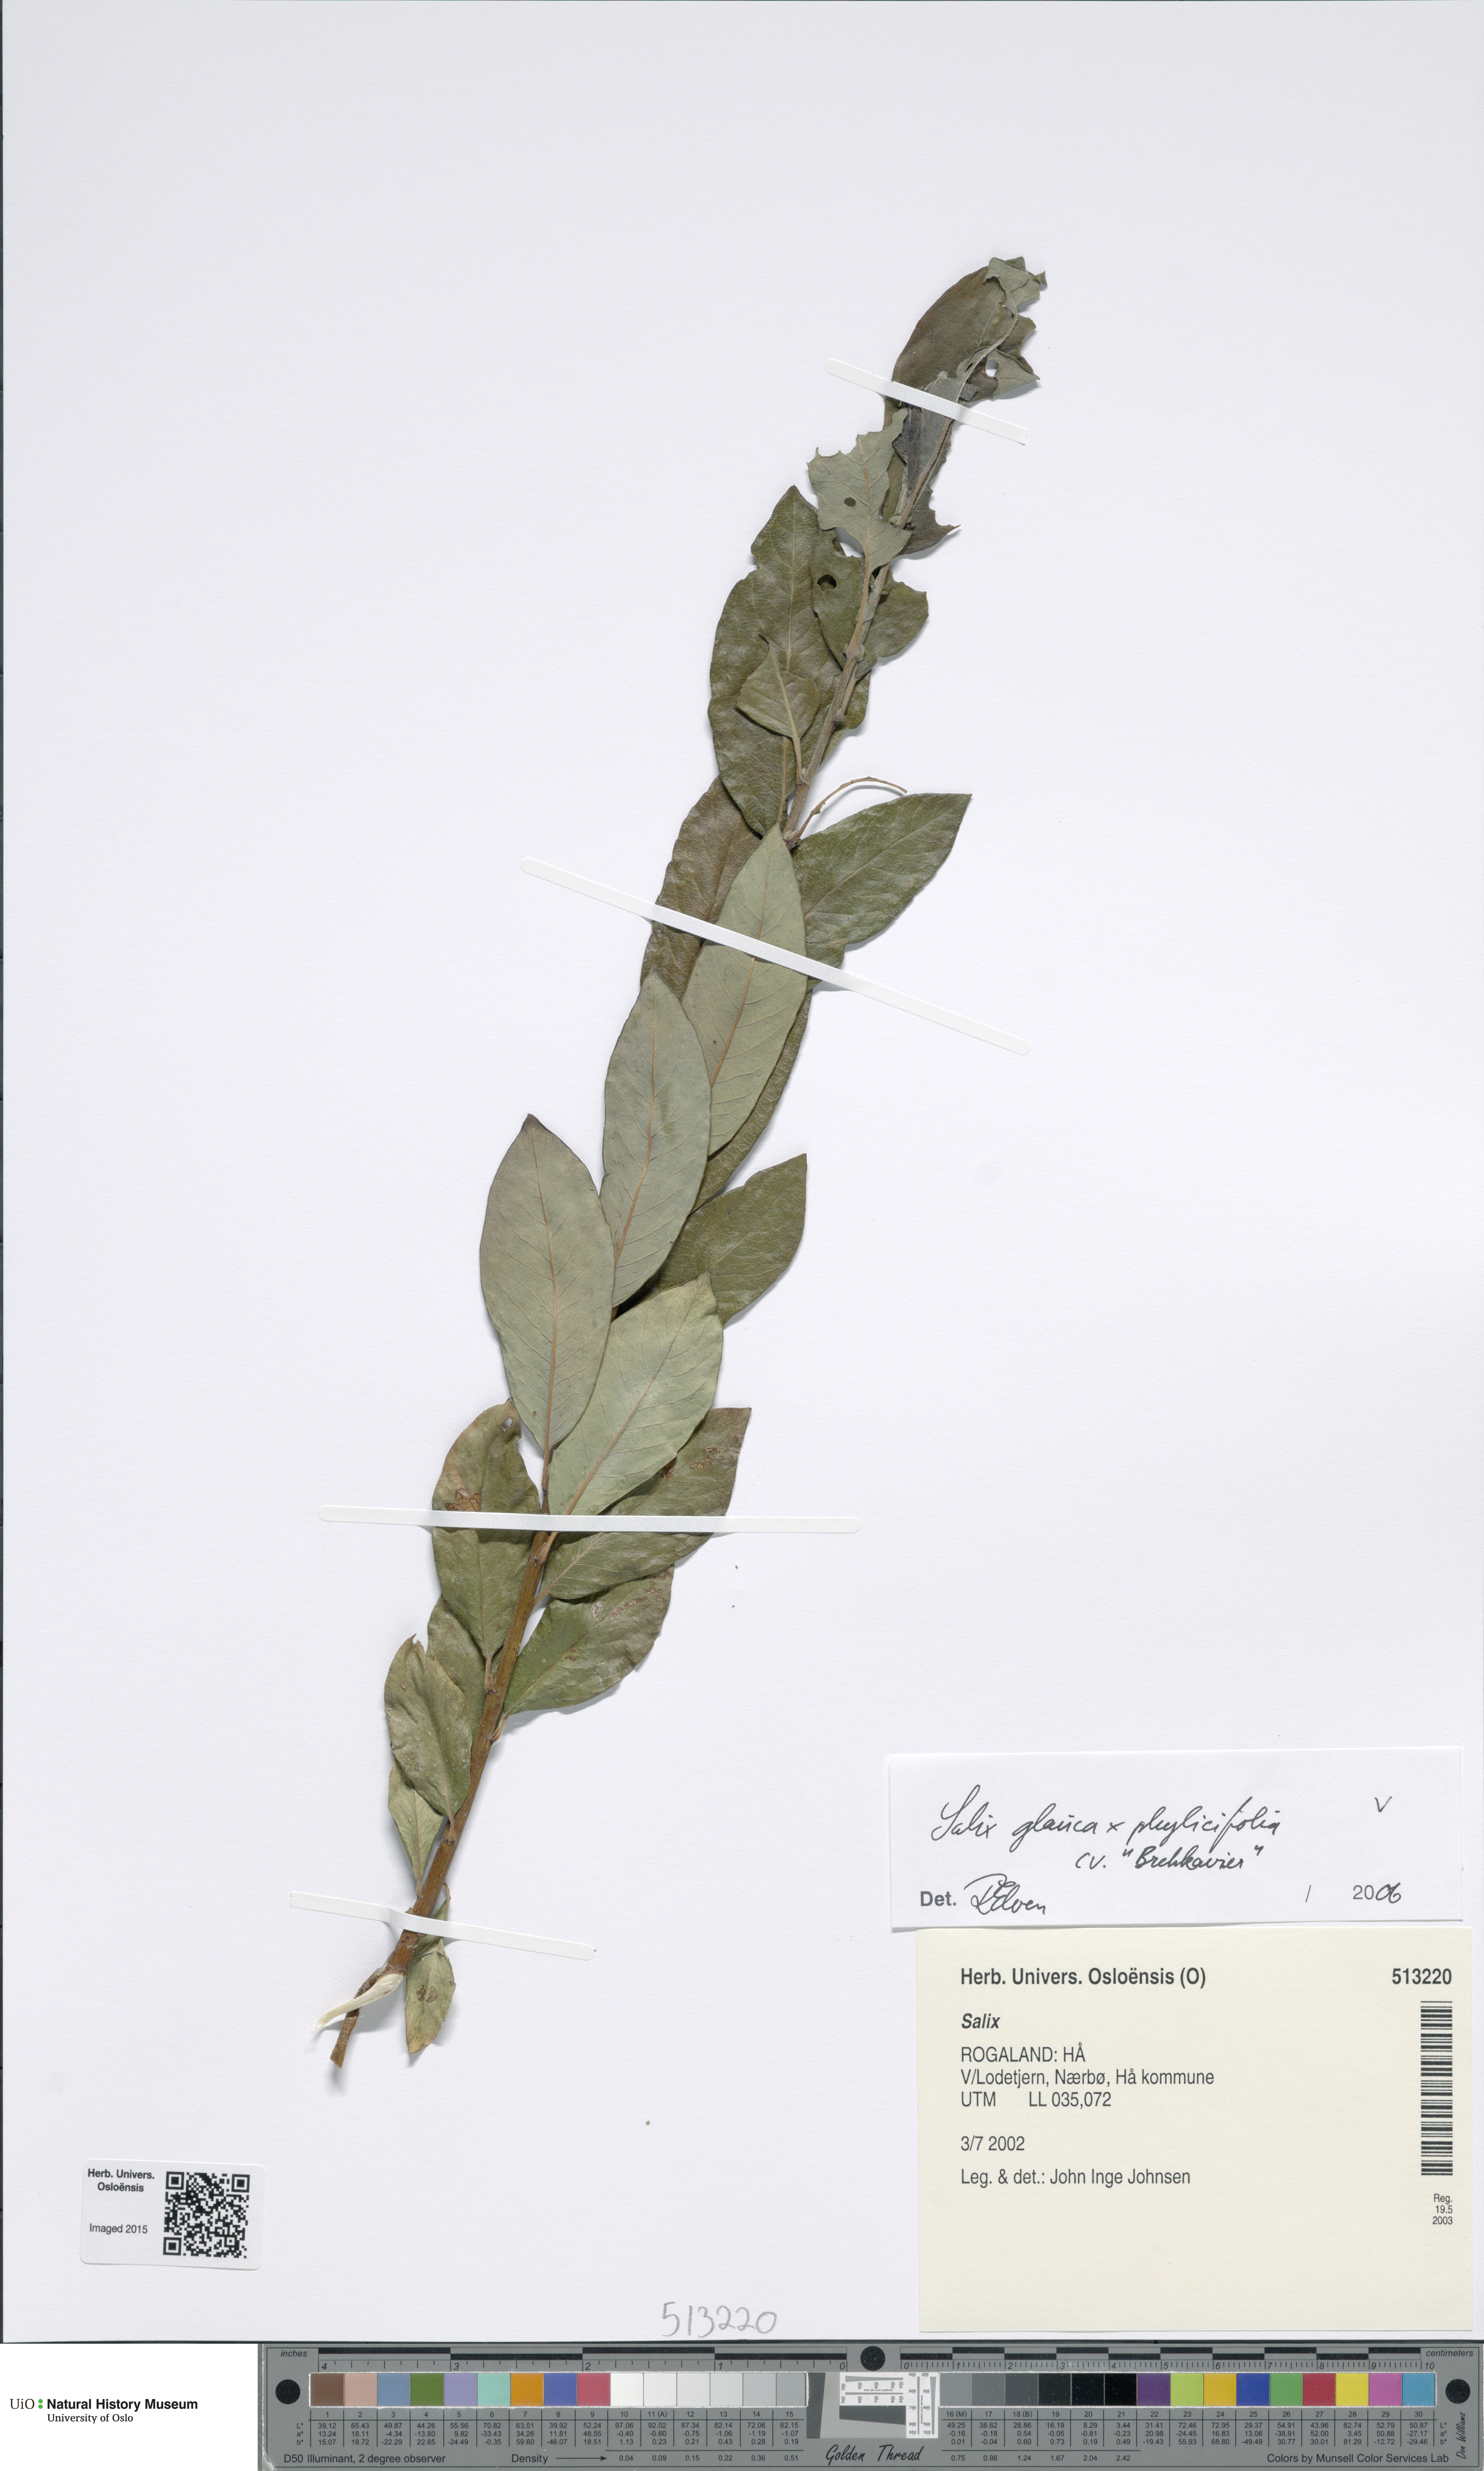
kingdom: Plantae
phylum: Tracheophyta
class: Magnoliopsida
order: Malpighiales
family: Salicaceae
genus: Salix
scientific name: Salix
